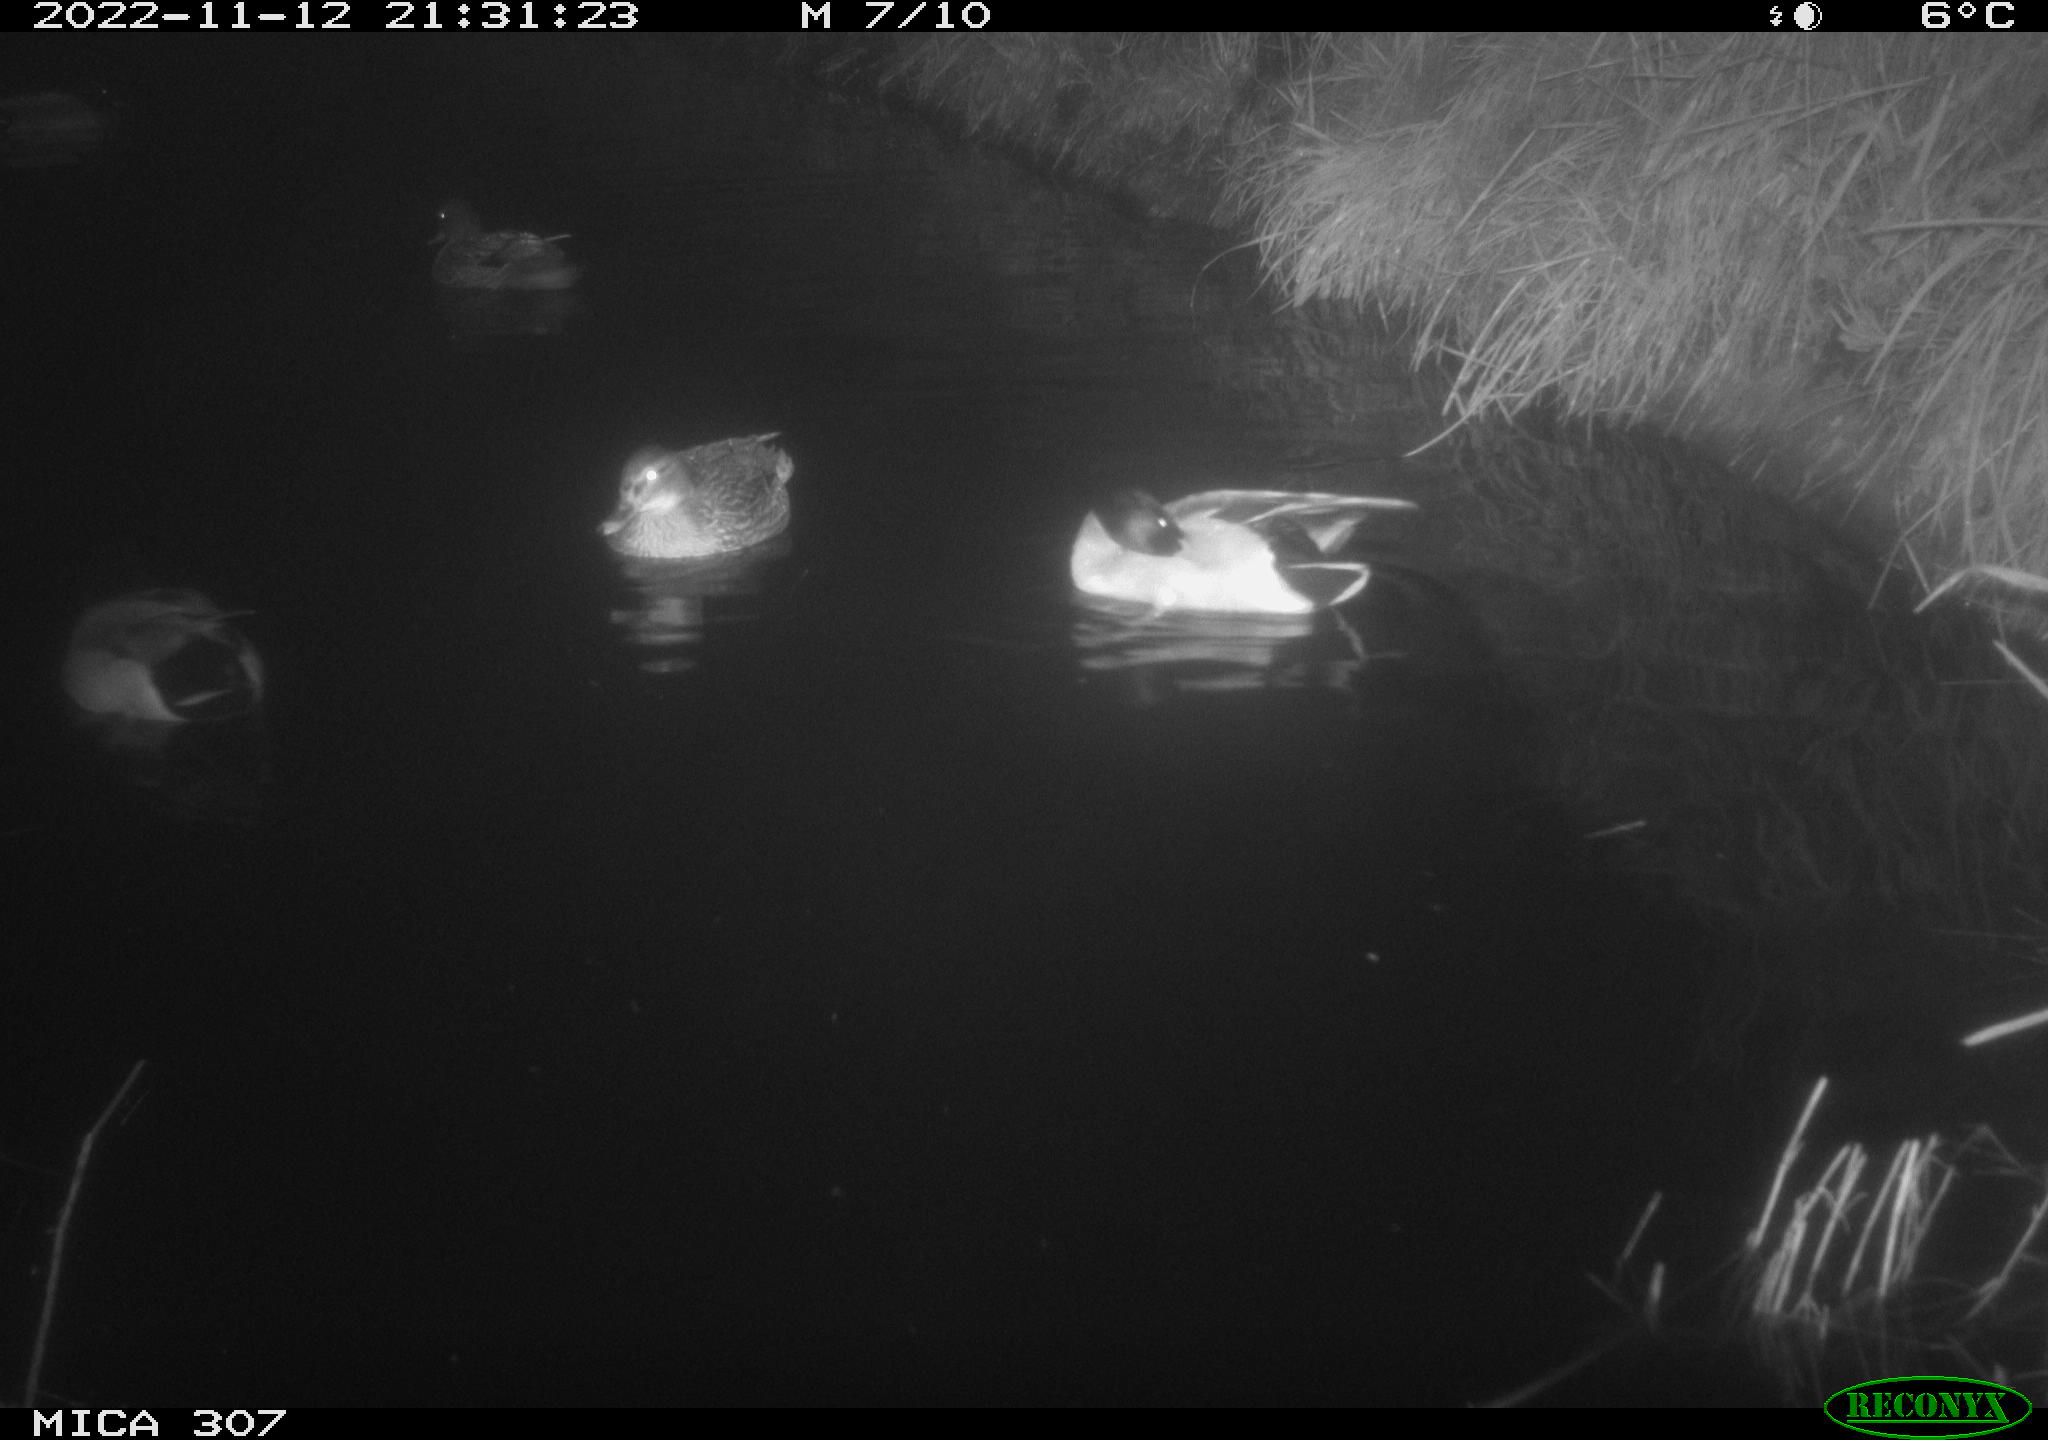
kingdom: Animalia
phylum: Chordata
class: Aves
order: Anseriformes
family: Anatidae
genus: Anas
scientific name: Anas
